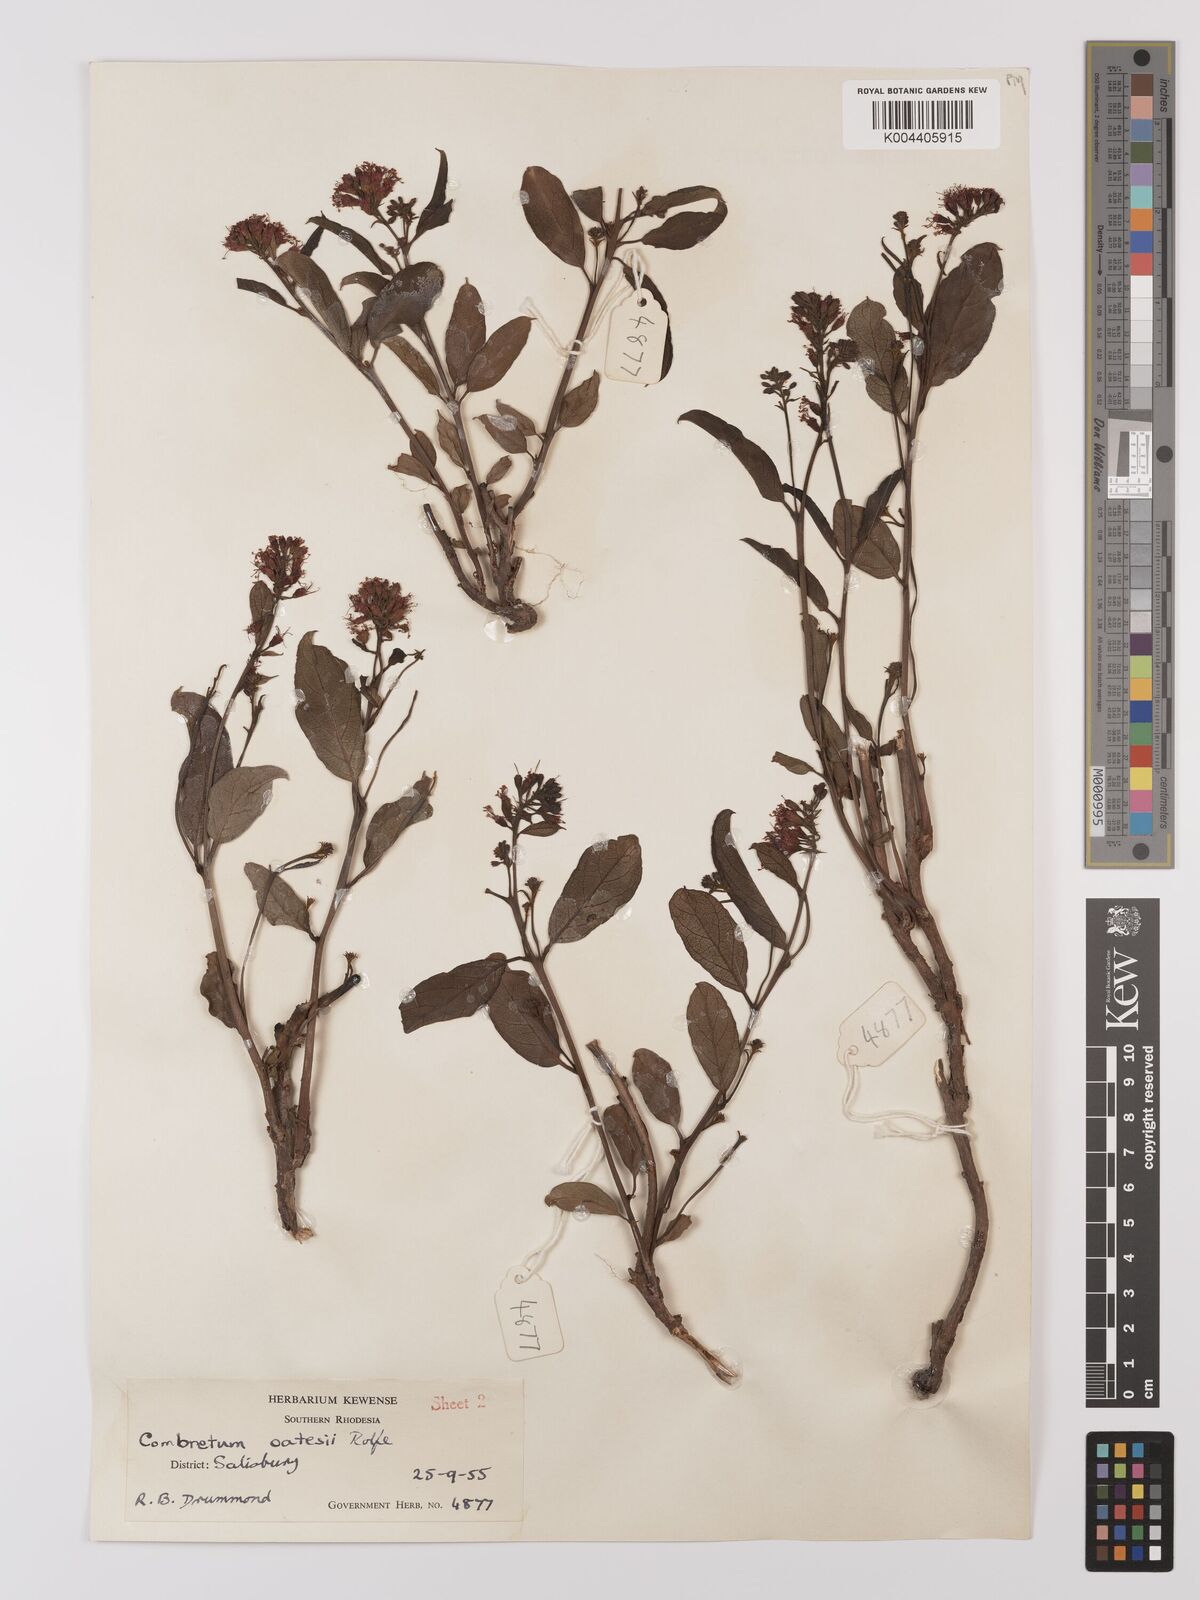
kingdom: Plantae
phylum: Tracheophyta
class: Magnoliopsida
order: Myrtales
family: Combretaceae
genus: Combretum
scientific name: Combretum platypetalum
